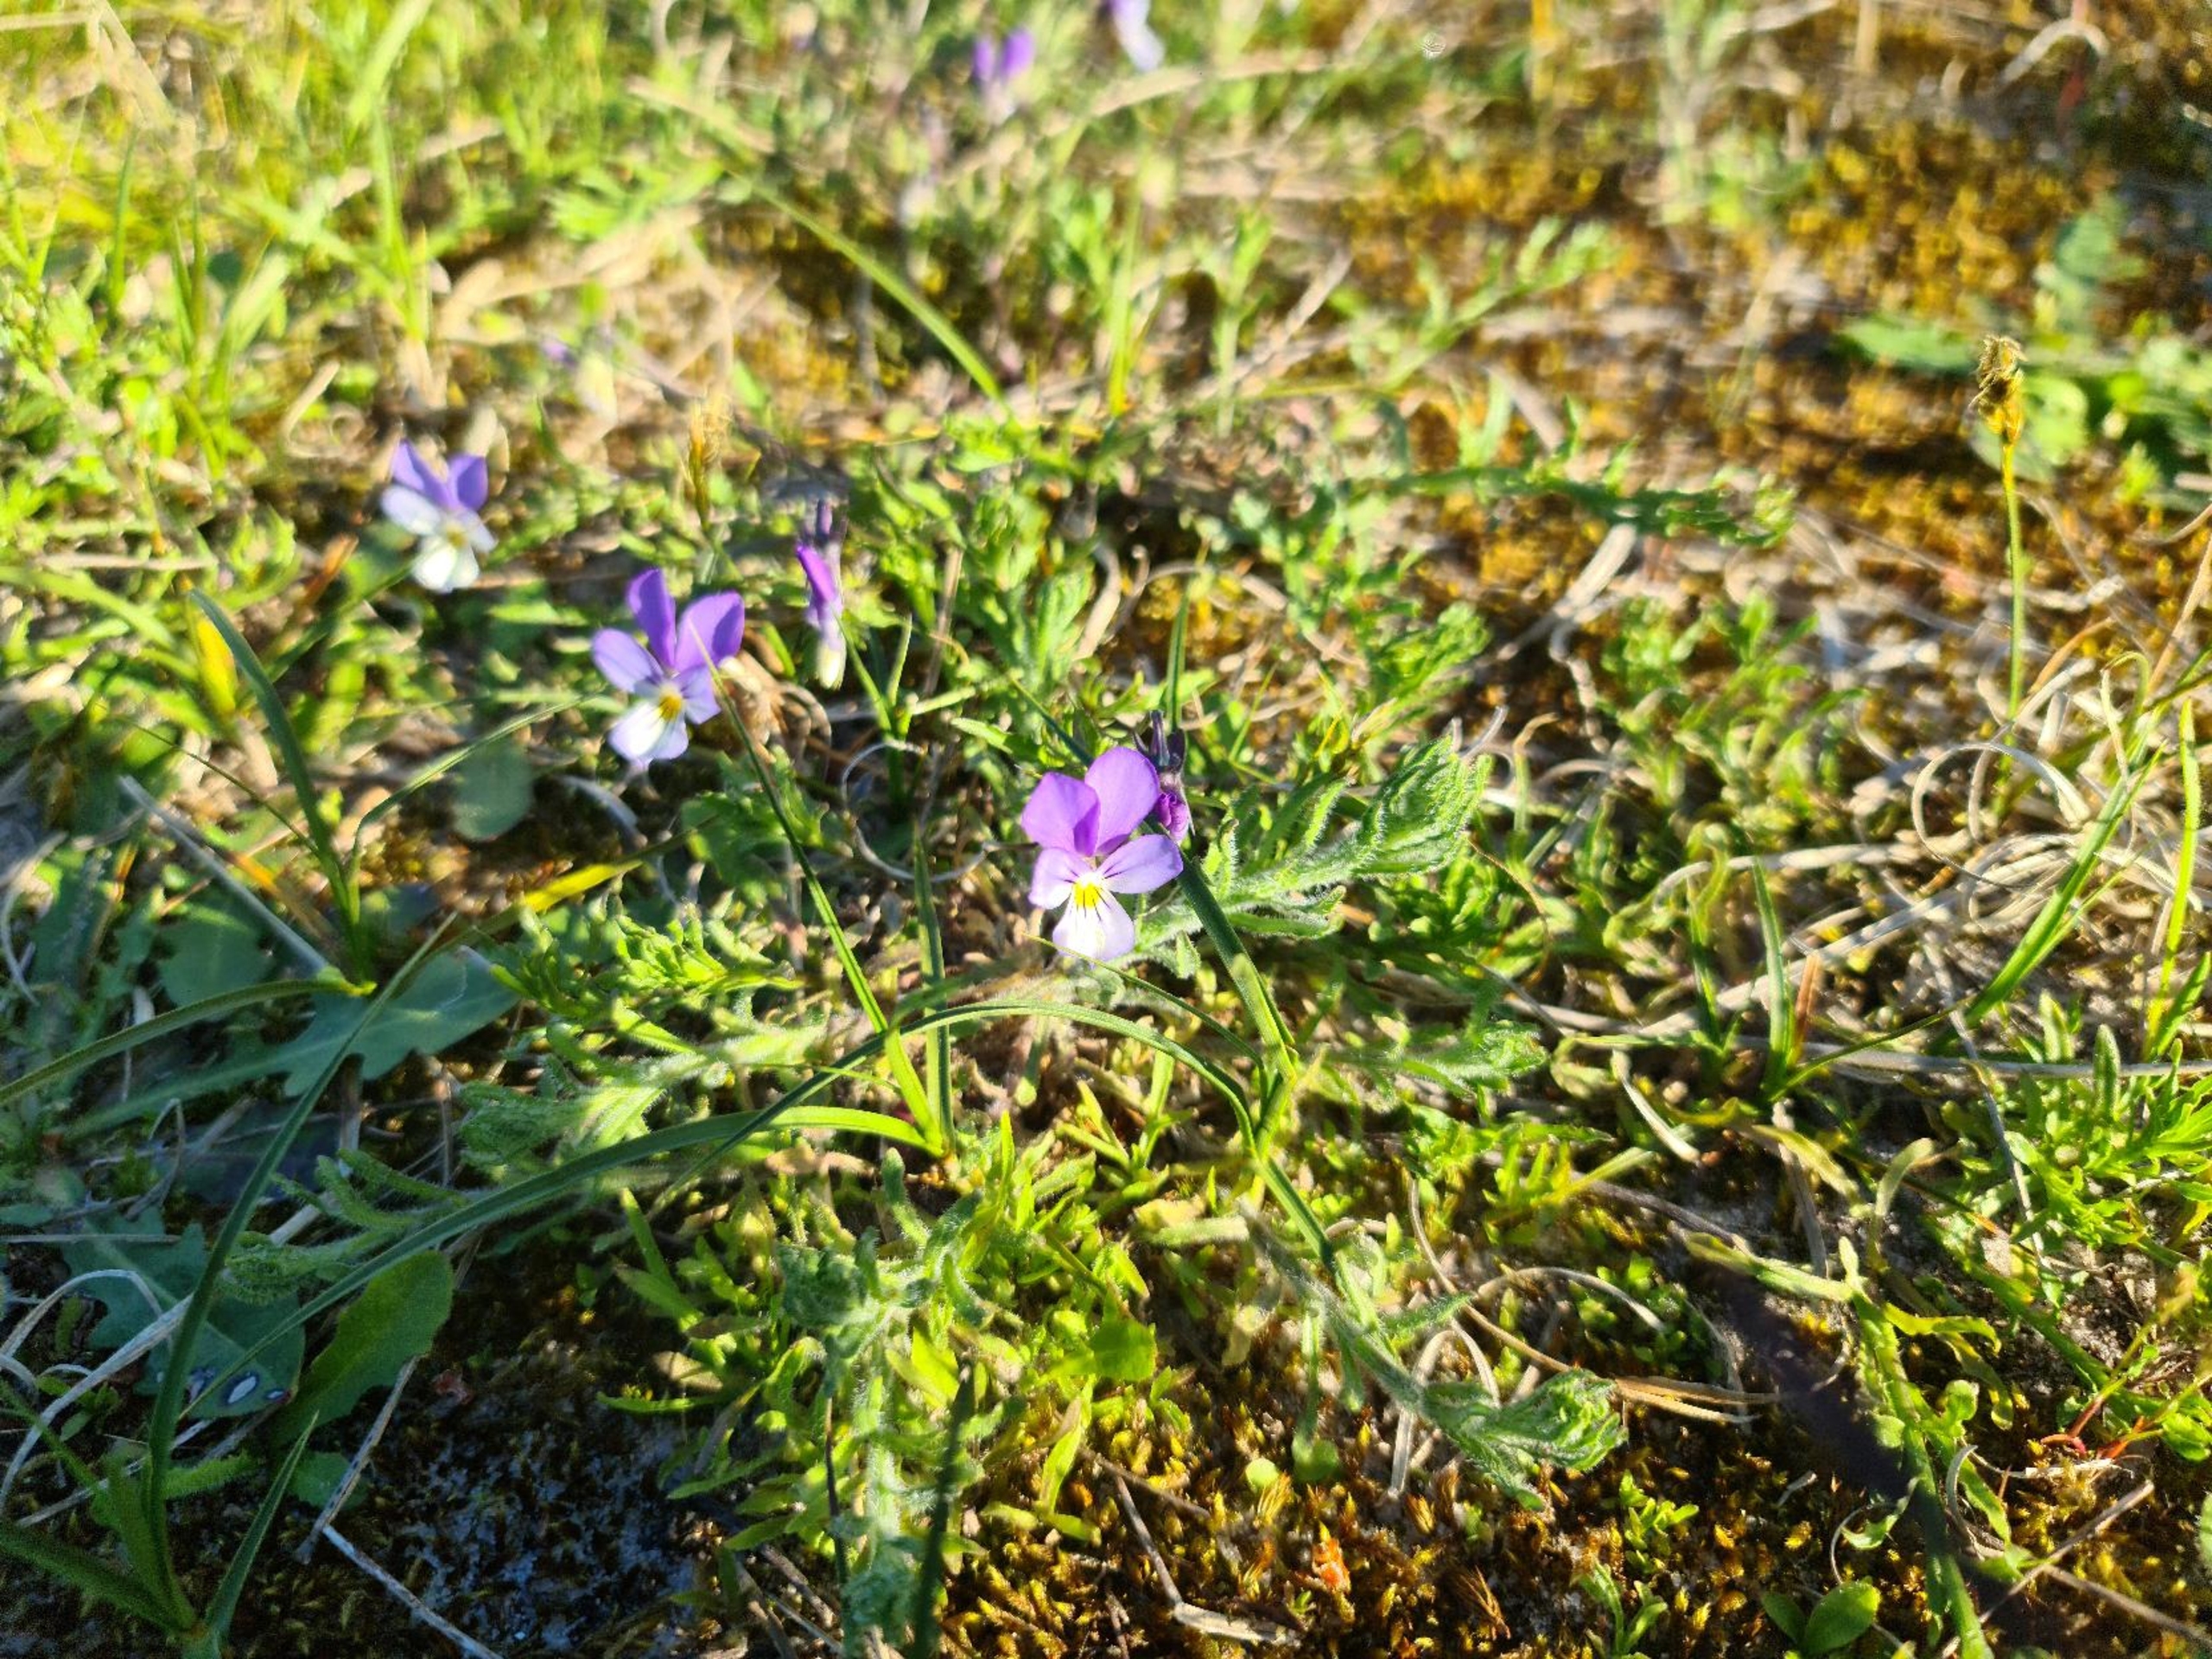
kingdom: Plantae
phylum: Tracheophyta
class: Magnoliopsida
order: Malpighiales
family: Violaceae
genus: Viola
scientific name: Viola tricolor
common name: Stedmoderblomst
